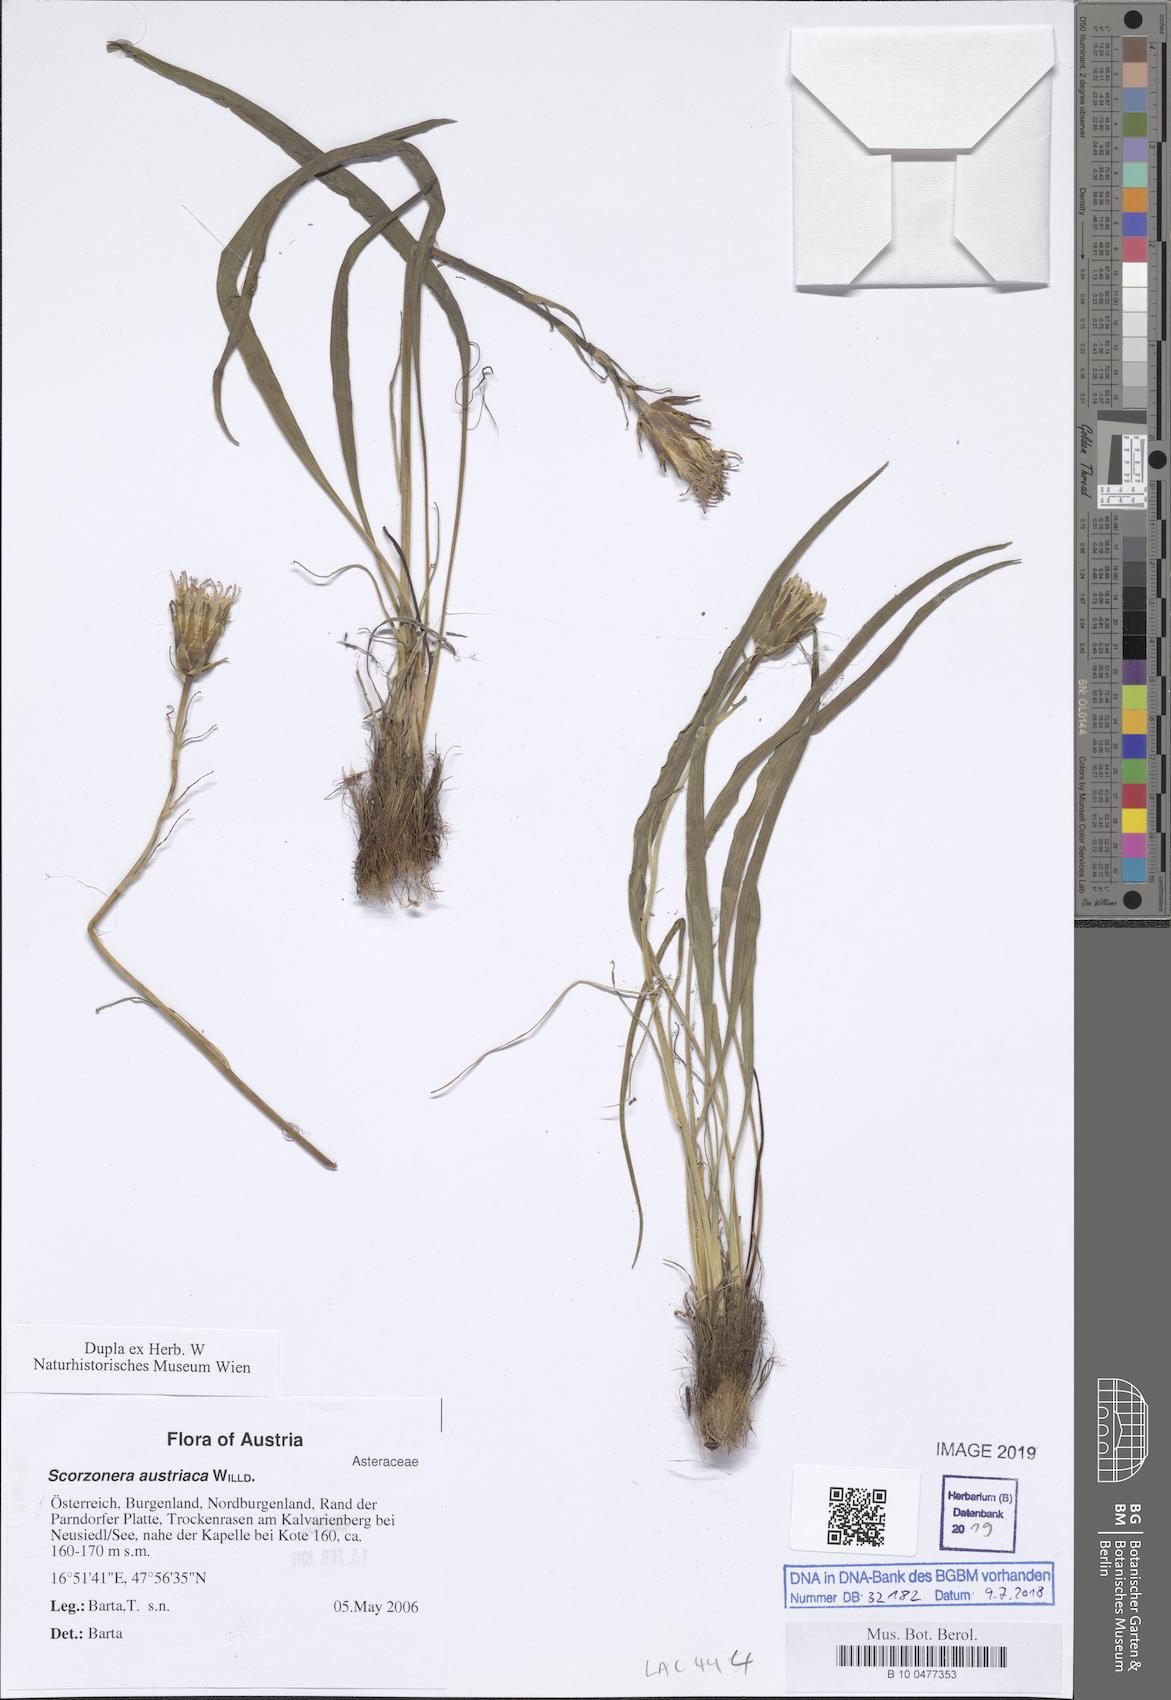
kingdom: Plantae
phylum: Tracheophyta
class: Magnoliopsida
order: Asterales
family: Asteraceae
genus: Takhtajaniantha
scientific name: Takhtajaniantha austriaca
